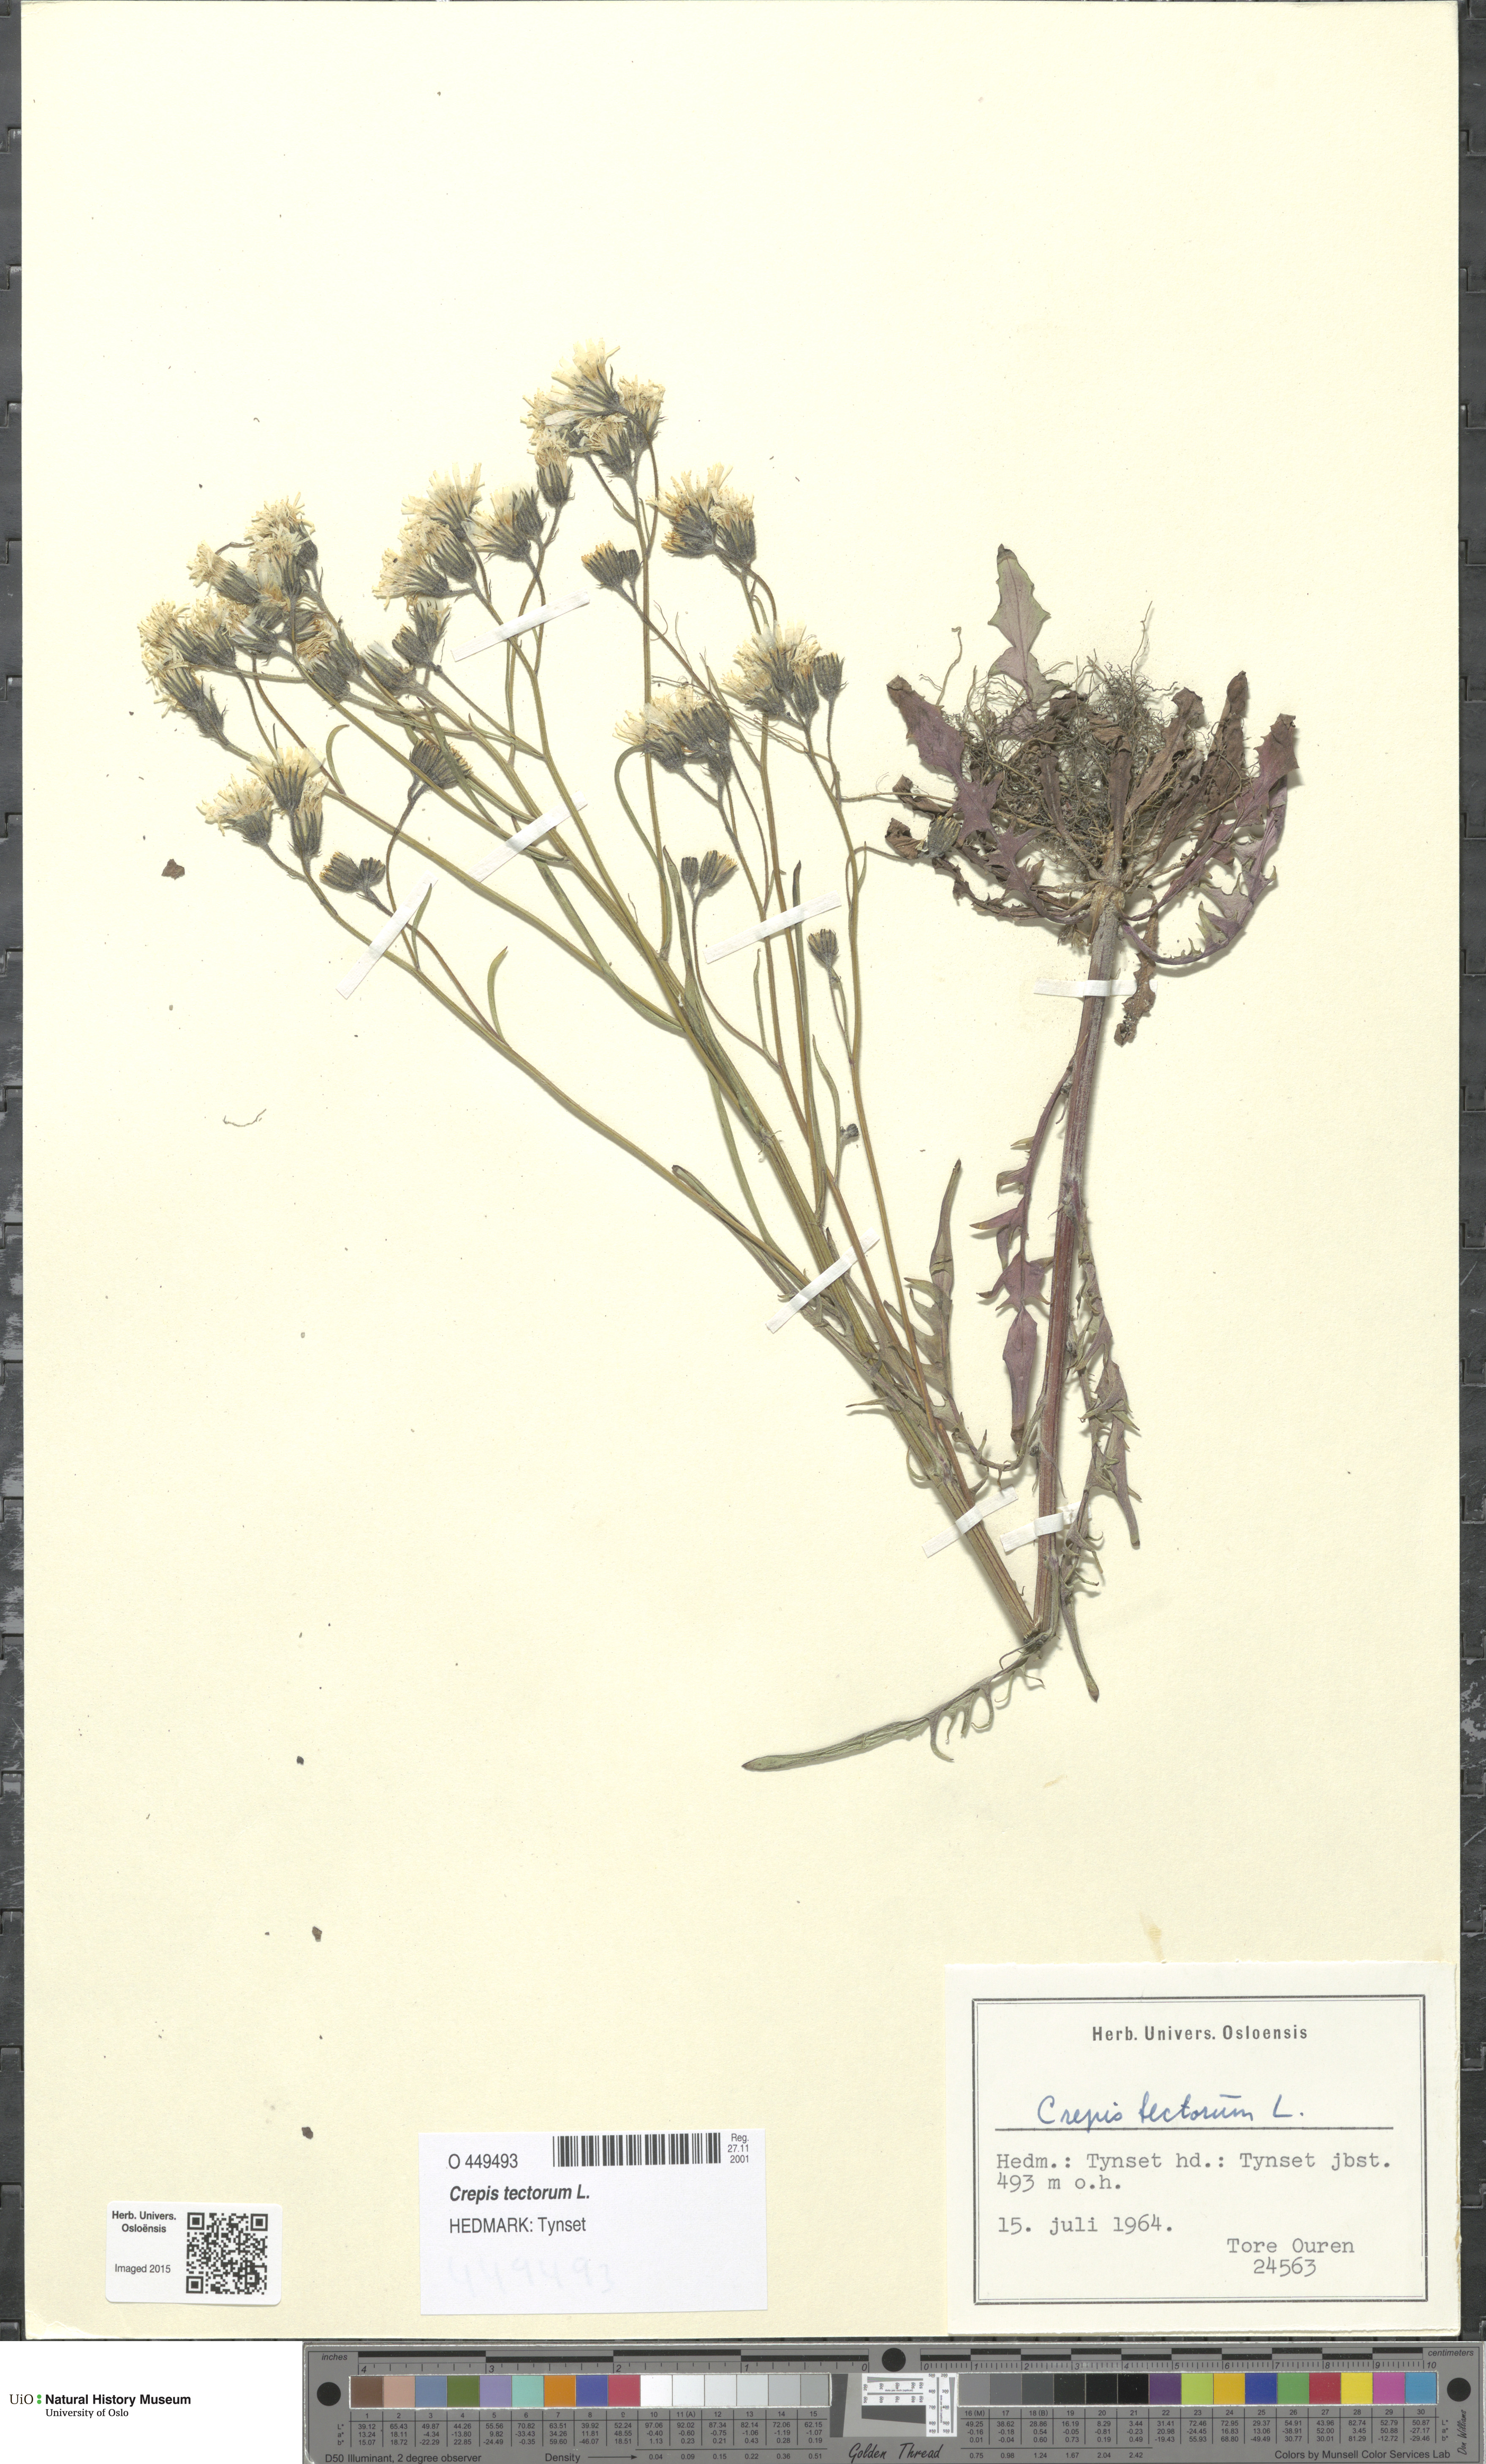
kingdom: Plantae
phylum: Tracheophyta
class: Magnoliopsida
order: Asterales
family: Asteraceae
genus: Crepis
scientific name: Crepis tectorum
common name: Narrow-leaved hawk's-beard
